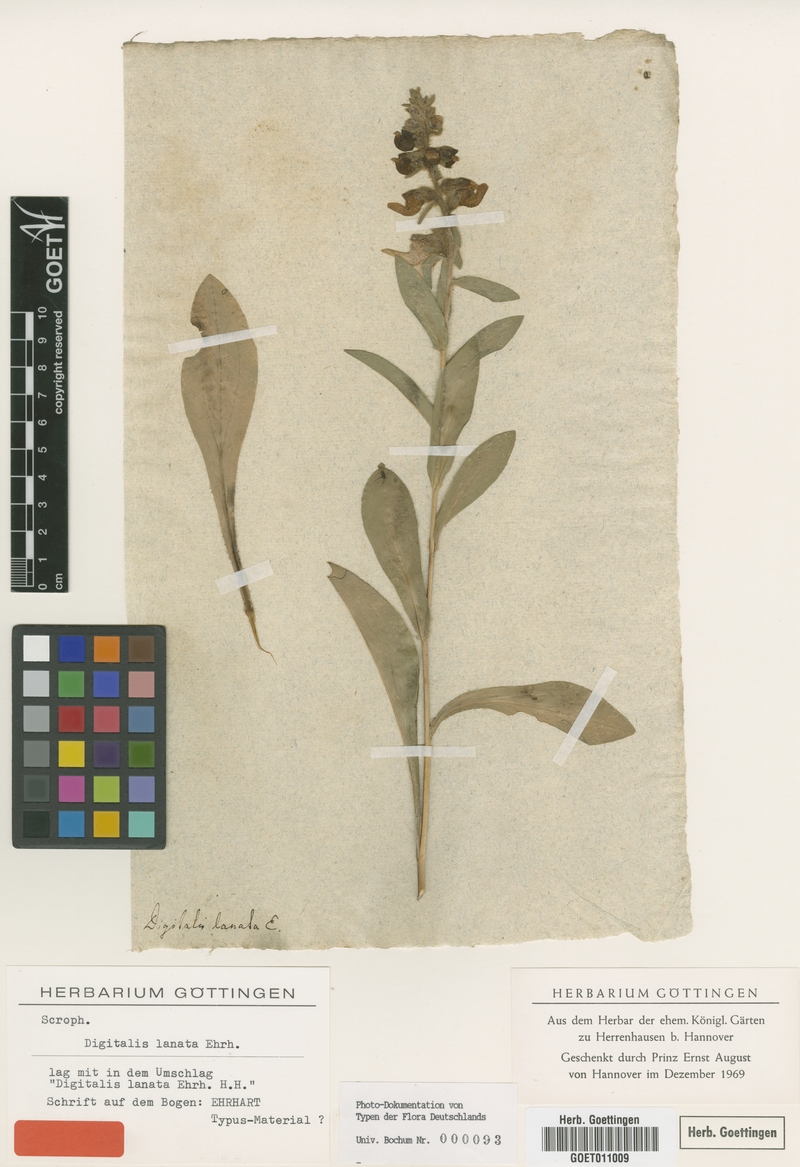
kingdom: Plantae
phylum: Tracheophyta
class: Magnoliopsida
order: Lamiales
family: Plantaginaceae
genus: Digitalis
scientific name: Digitalis lanata
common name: Grecian foxglove
